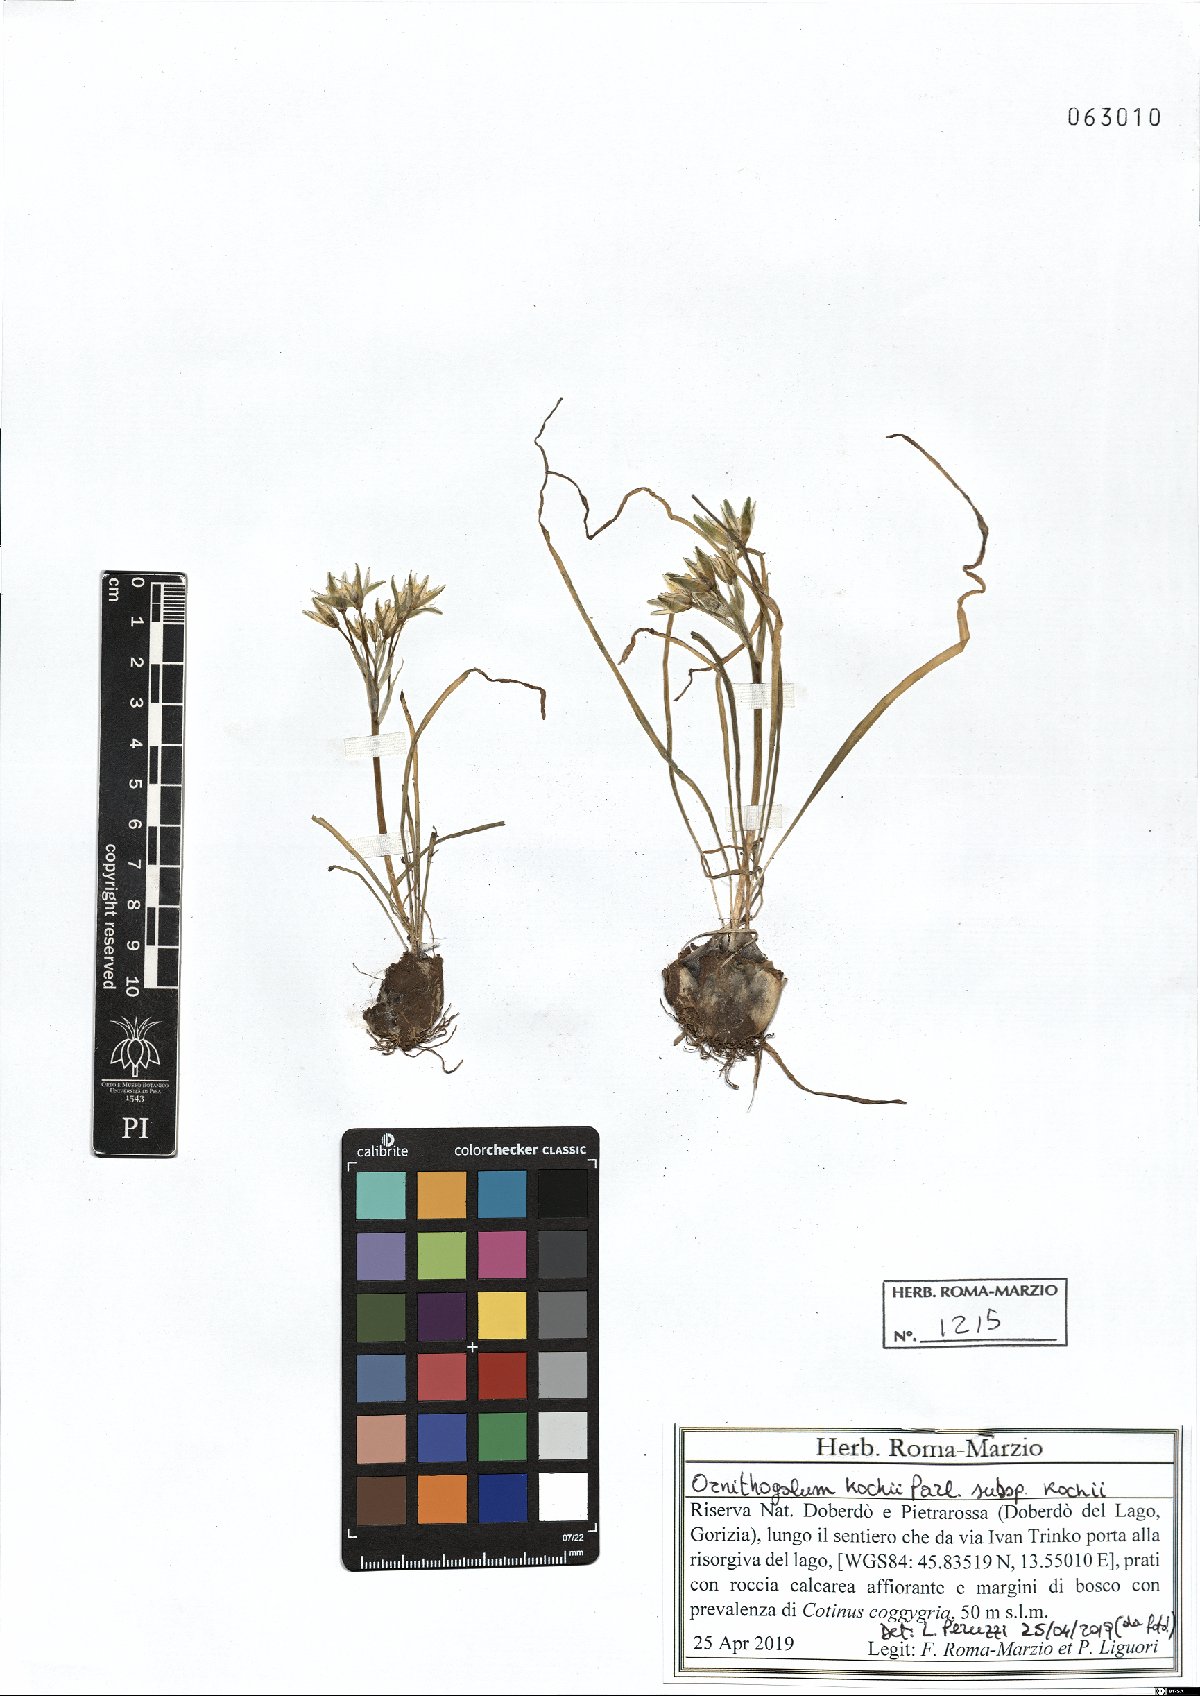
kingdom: Plantae
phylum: Tracheophyta
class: Liliopsida
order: Asparagales
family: Asparagaceae
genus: Ornithogalum
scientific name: Ornithogalum orthophyllum
